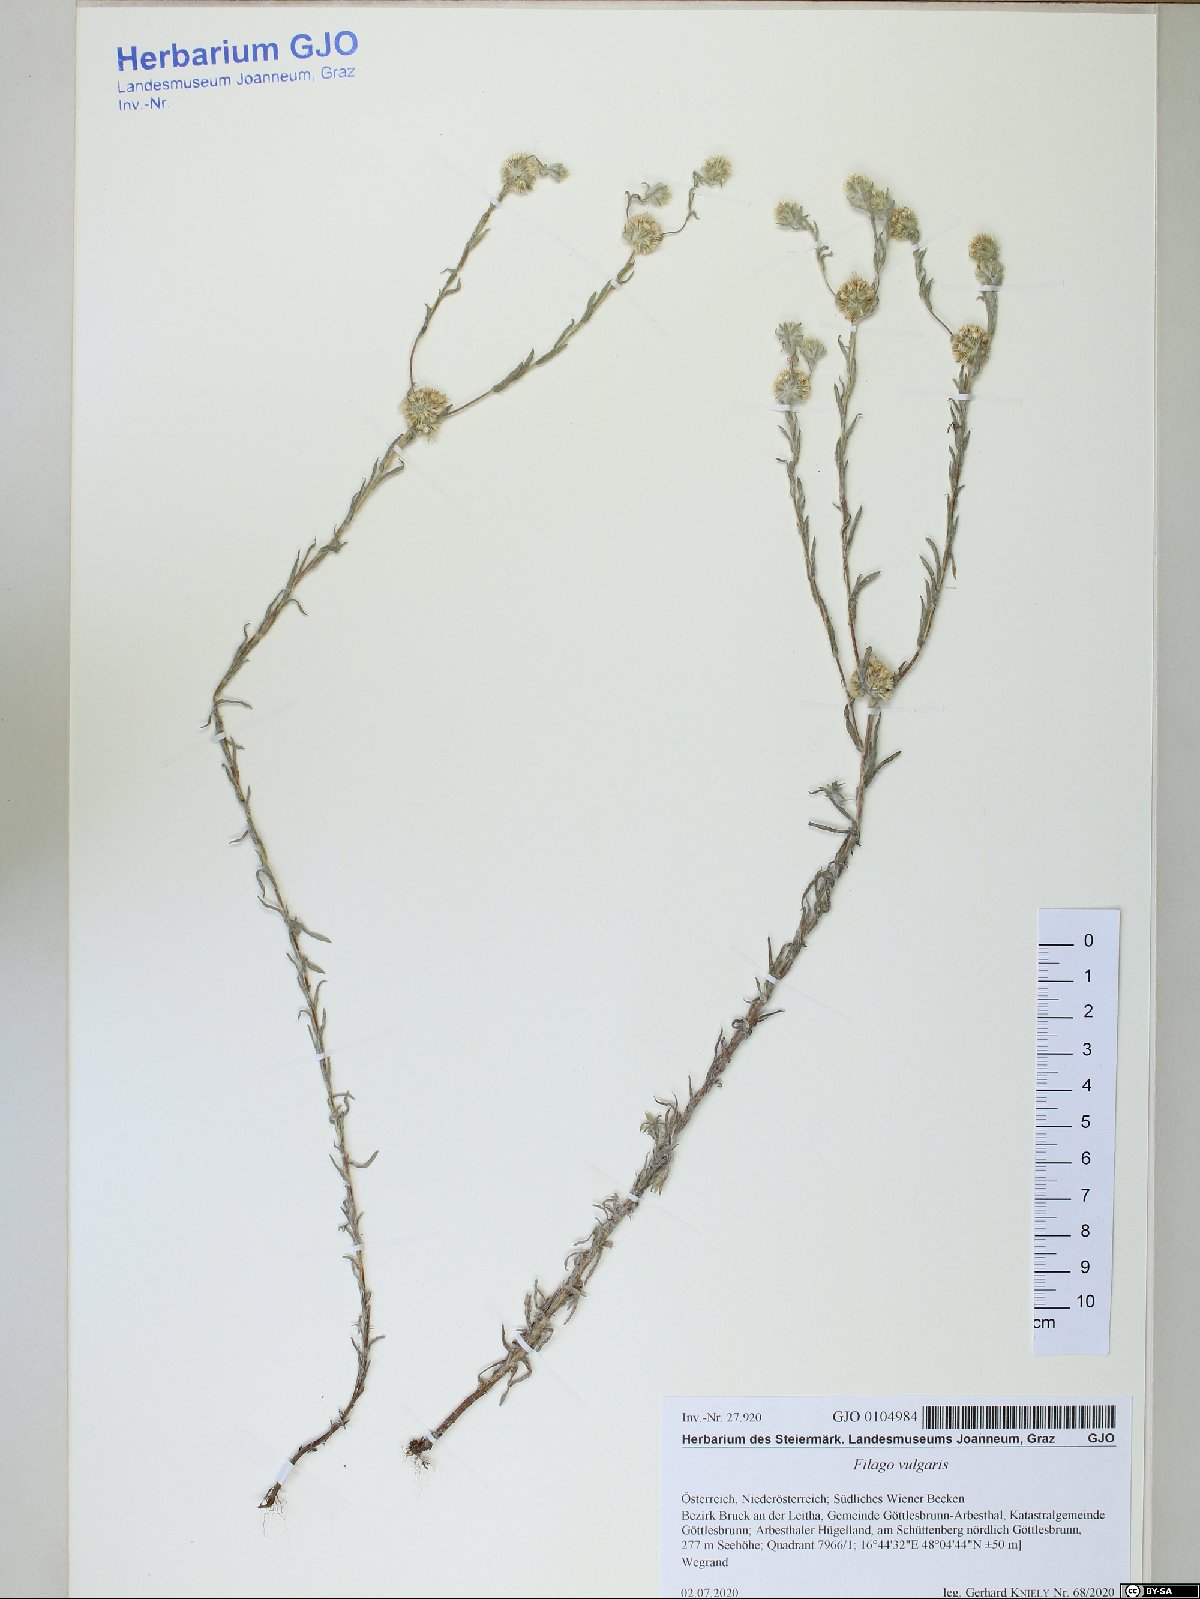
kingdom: Plantae
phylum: Tracheophyta
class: Magnoliopsida
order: Asterales
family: Asteraceae
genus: Filago
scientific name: Filago germanica
